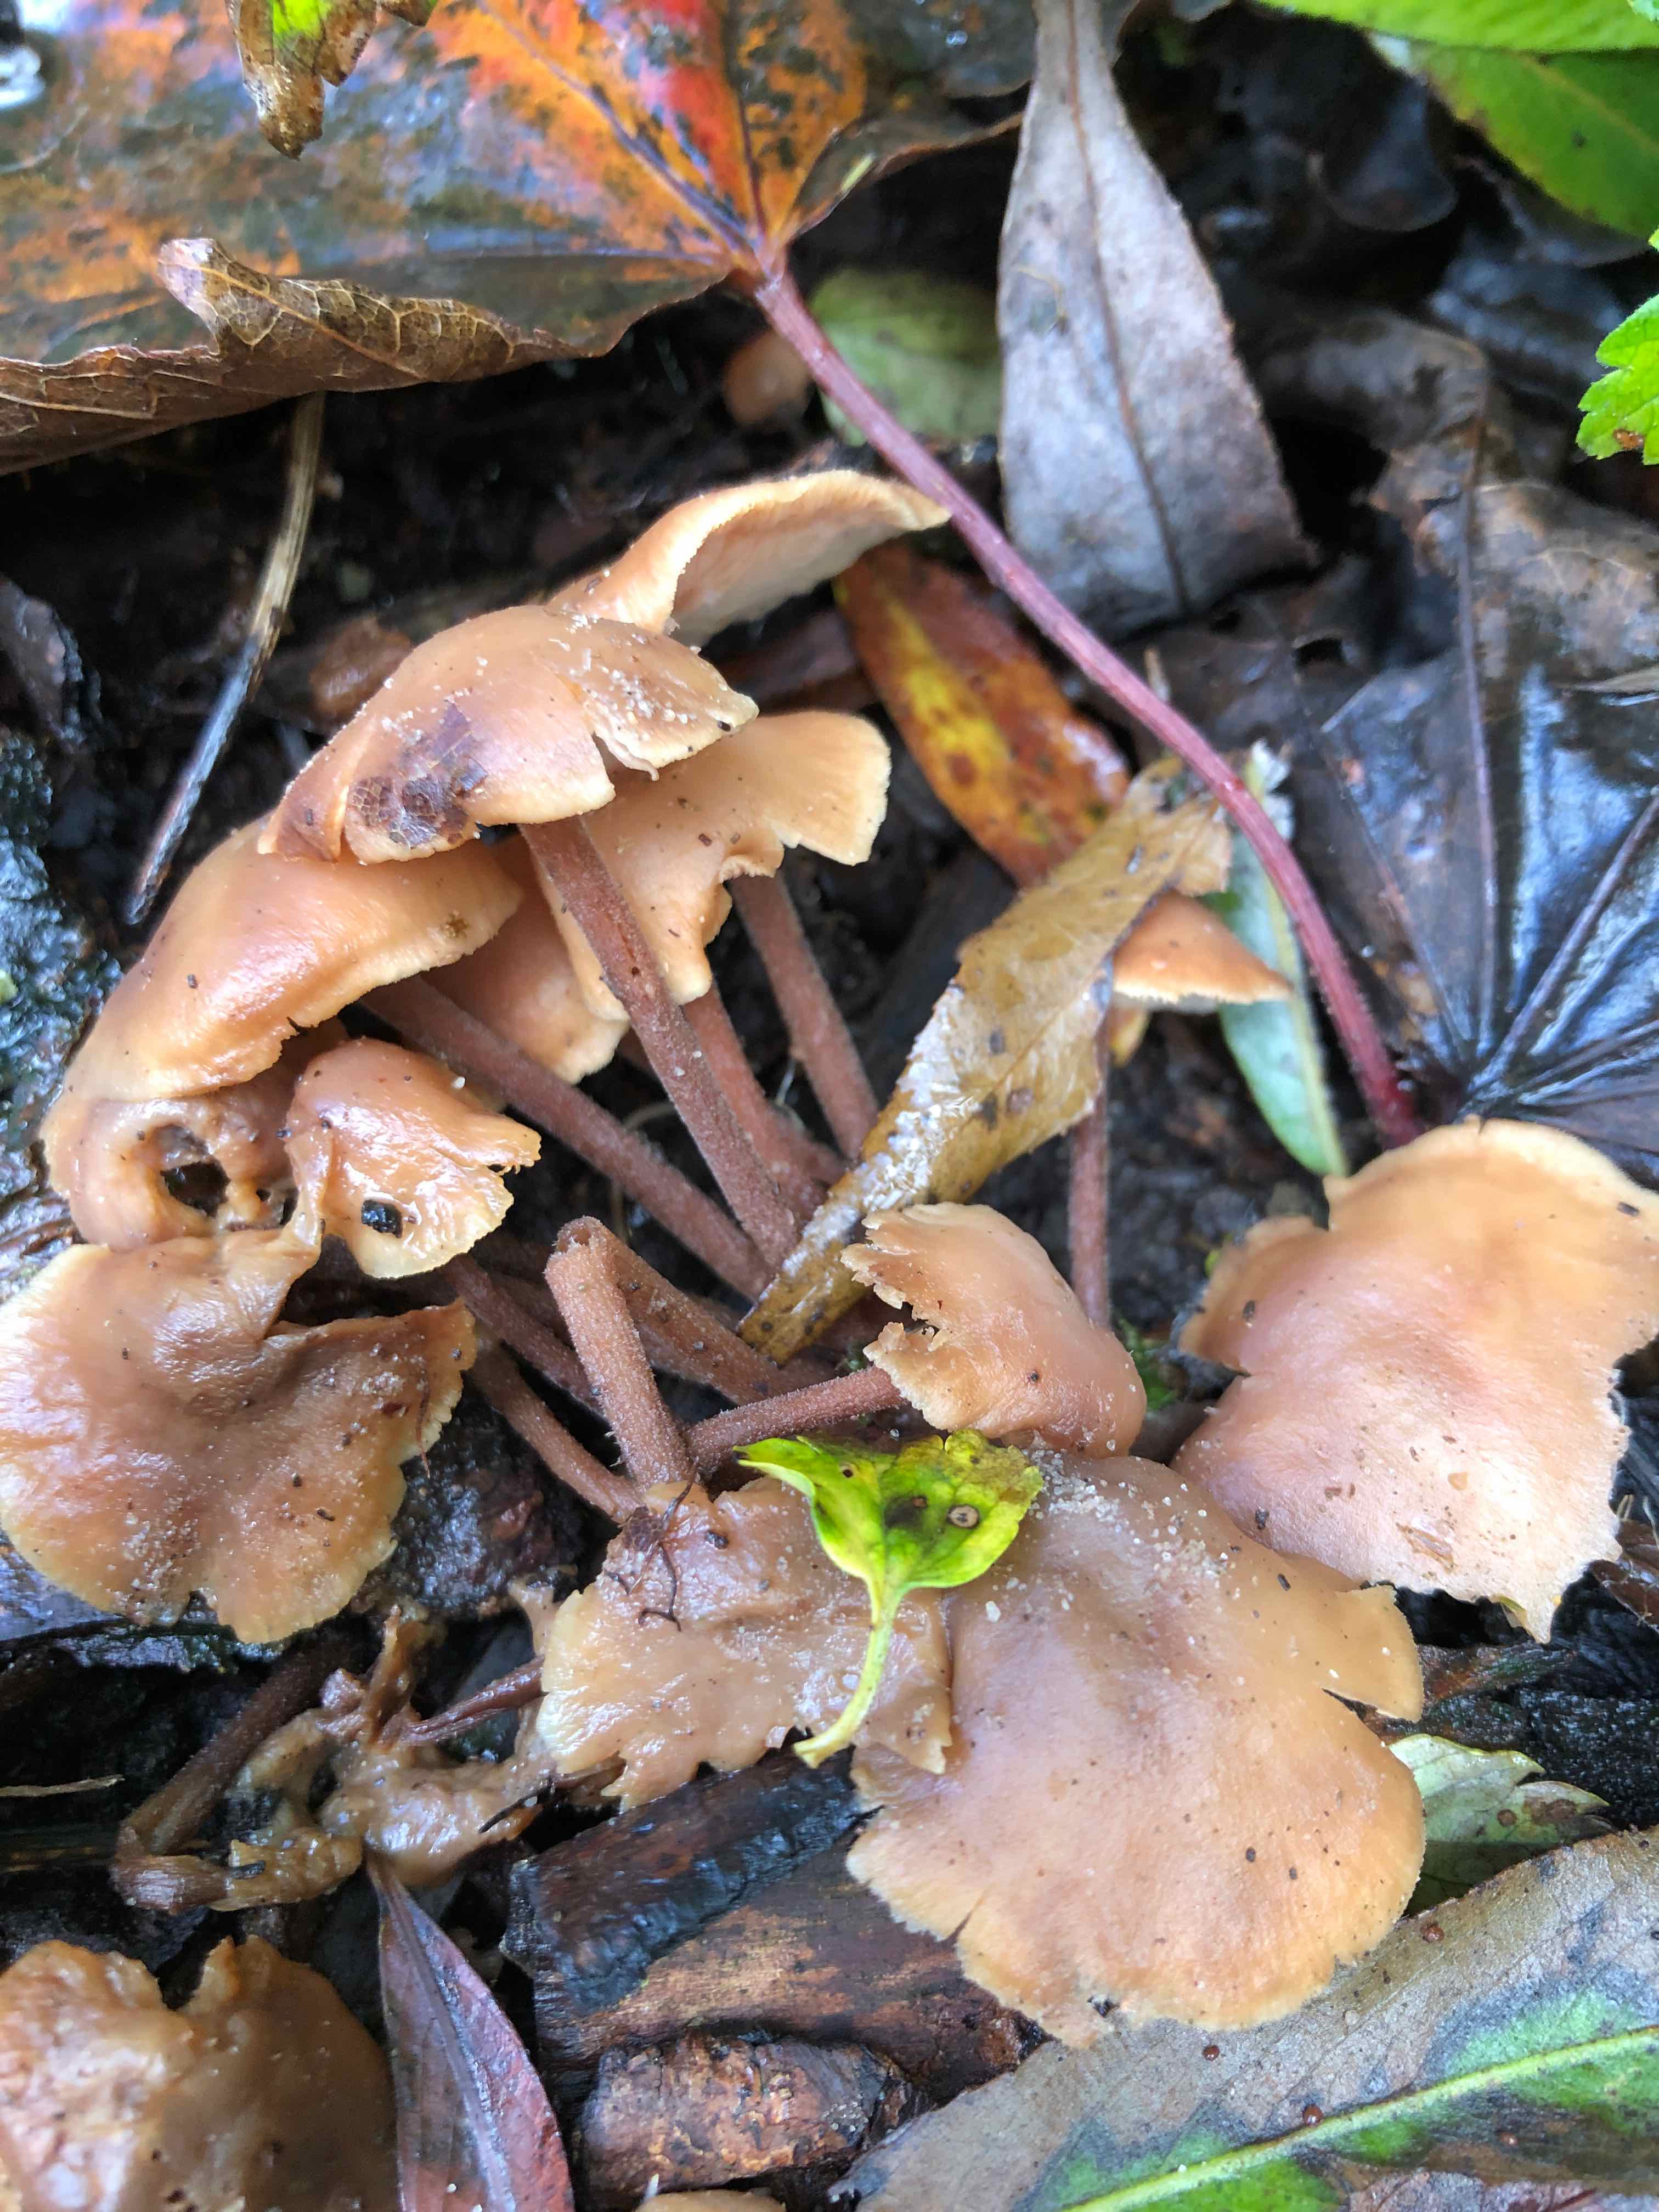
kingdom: Fungi
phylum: Basidiomycota
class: Agaricomycetes
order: Agaricales
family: Omphalotaceae
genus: Collybiopsis
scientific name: Collybiopsis confluens
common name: knippe-fladhat
